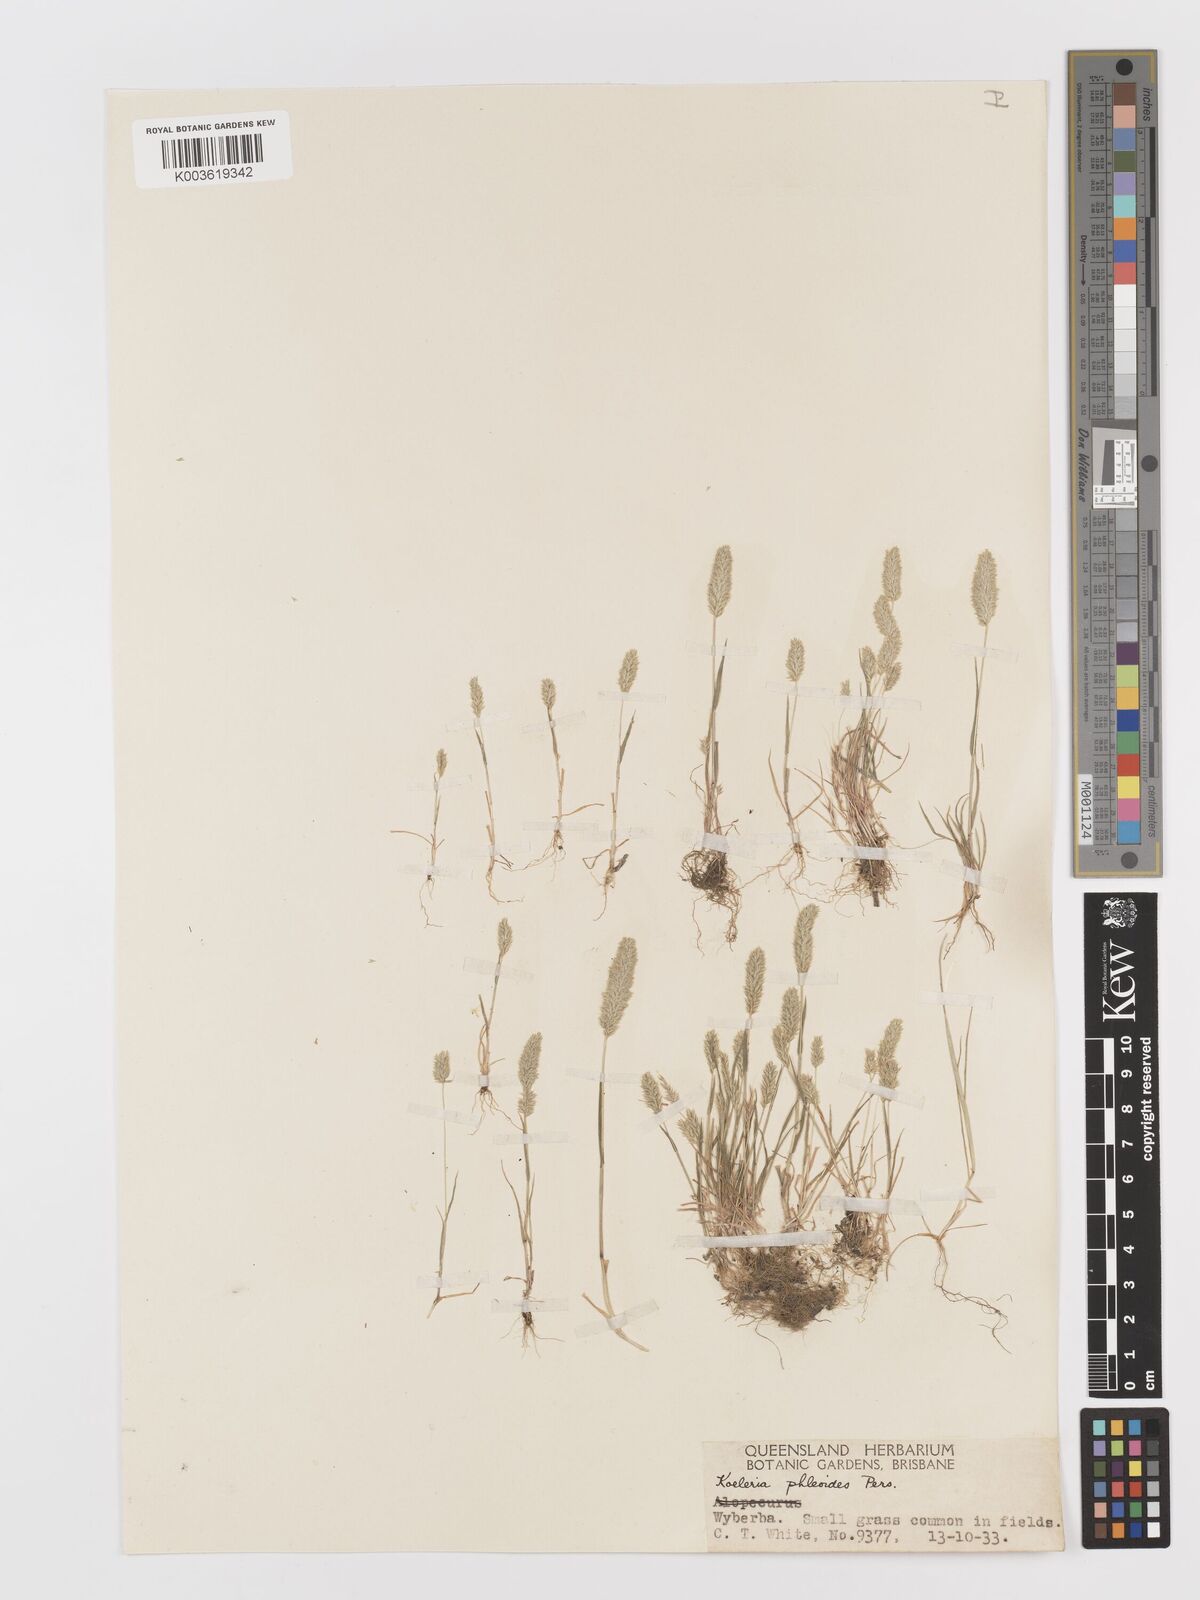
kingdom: Plantae
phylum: Tracheophyta
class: Liliopsida
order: Poales
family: Poaceae
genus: Rostraria
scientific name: Rostraria cristata
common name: Mediterranean hair-grass
